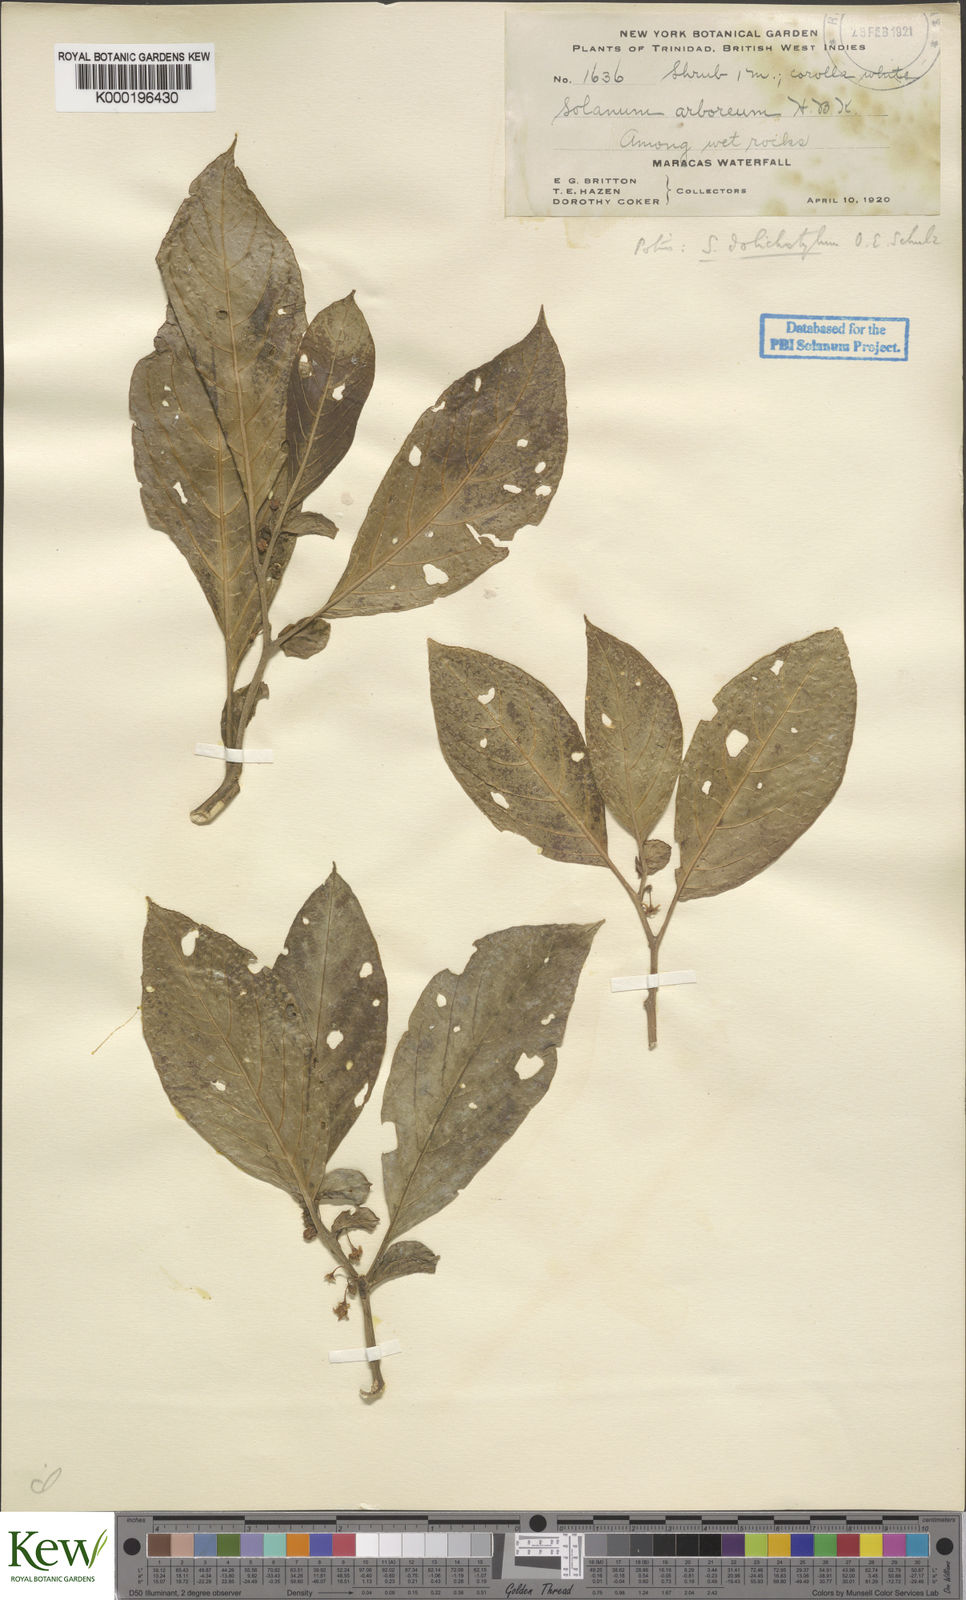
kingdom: Plantae
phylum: Tracheophyta
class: Magnoliopsida
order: Solanales
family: Solanaceae
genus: Solanum
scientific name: Solanum arboreum
